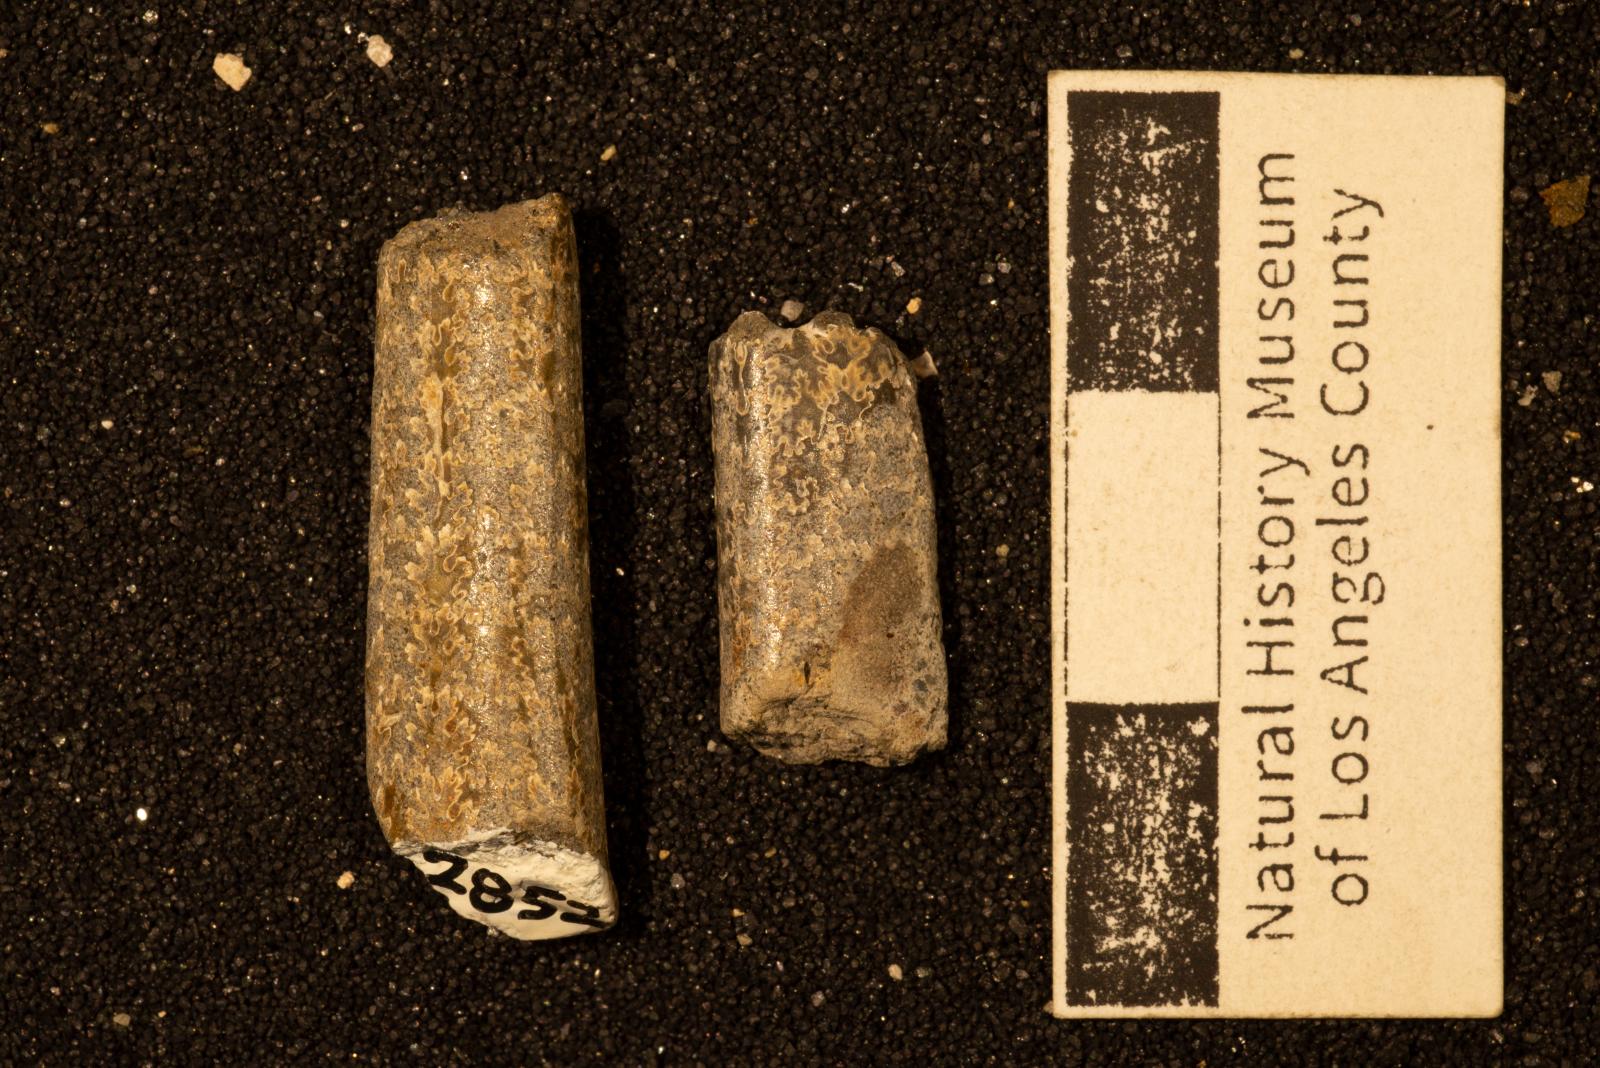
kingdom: Animalia
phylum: Mollusca
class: Cephalopoda
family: Baculitidae
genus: Baculites
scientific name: Baculites
